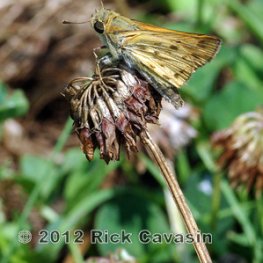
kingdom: Animalia
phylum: Arthropoda
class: Insecta
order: Lepidoptera
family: Hesperiidae
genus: Hylephila
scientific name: Hylephila phyleus
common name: Fiery Skipper
